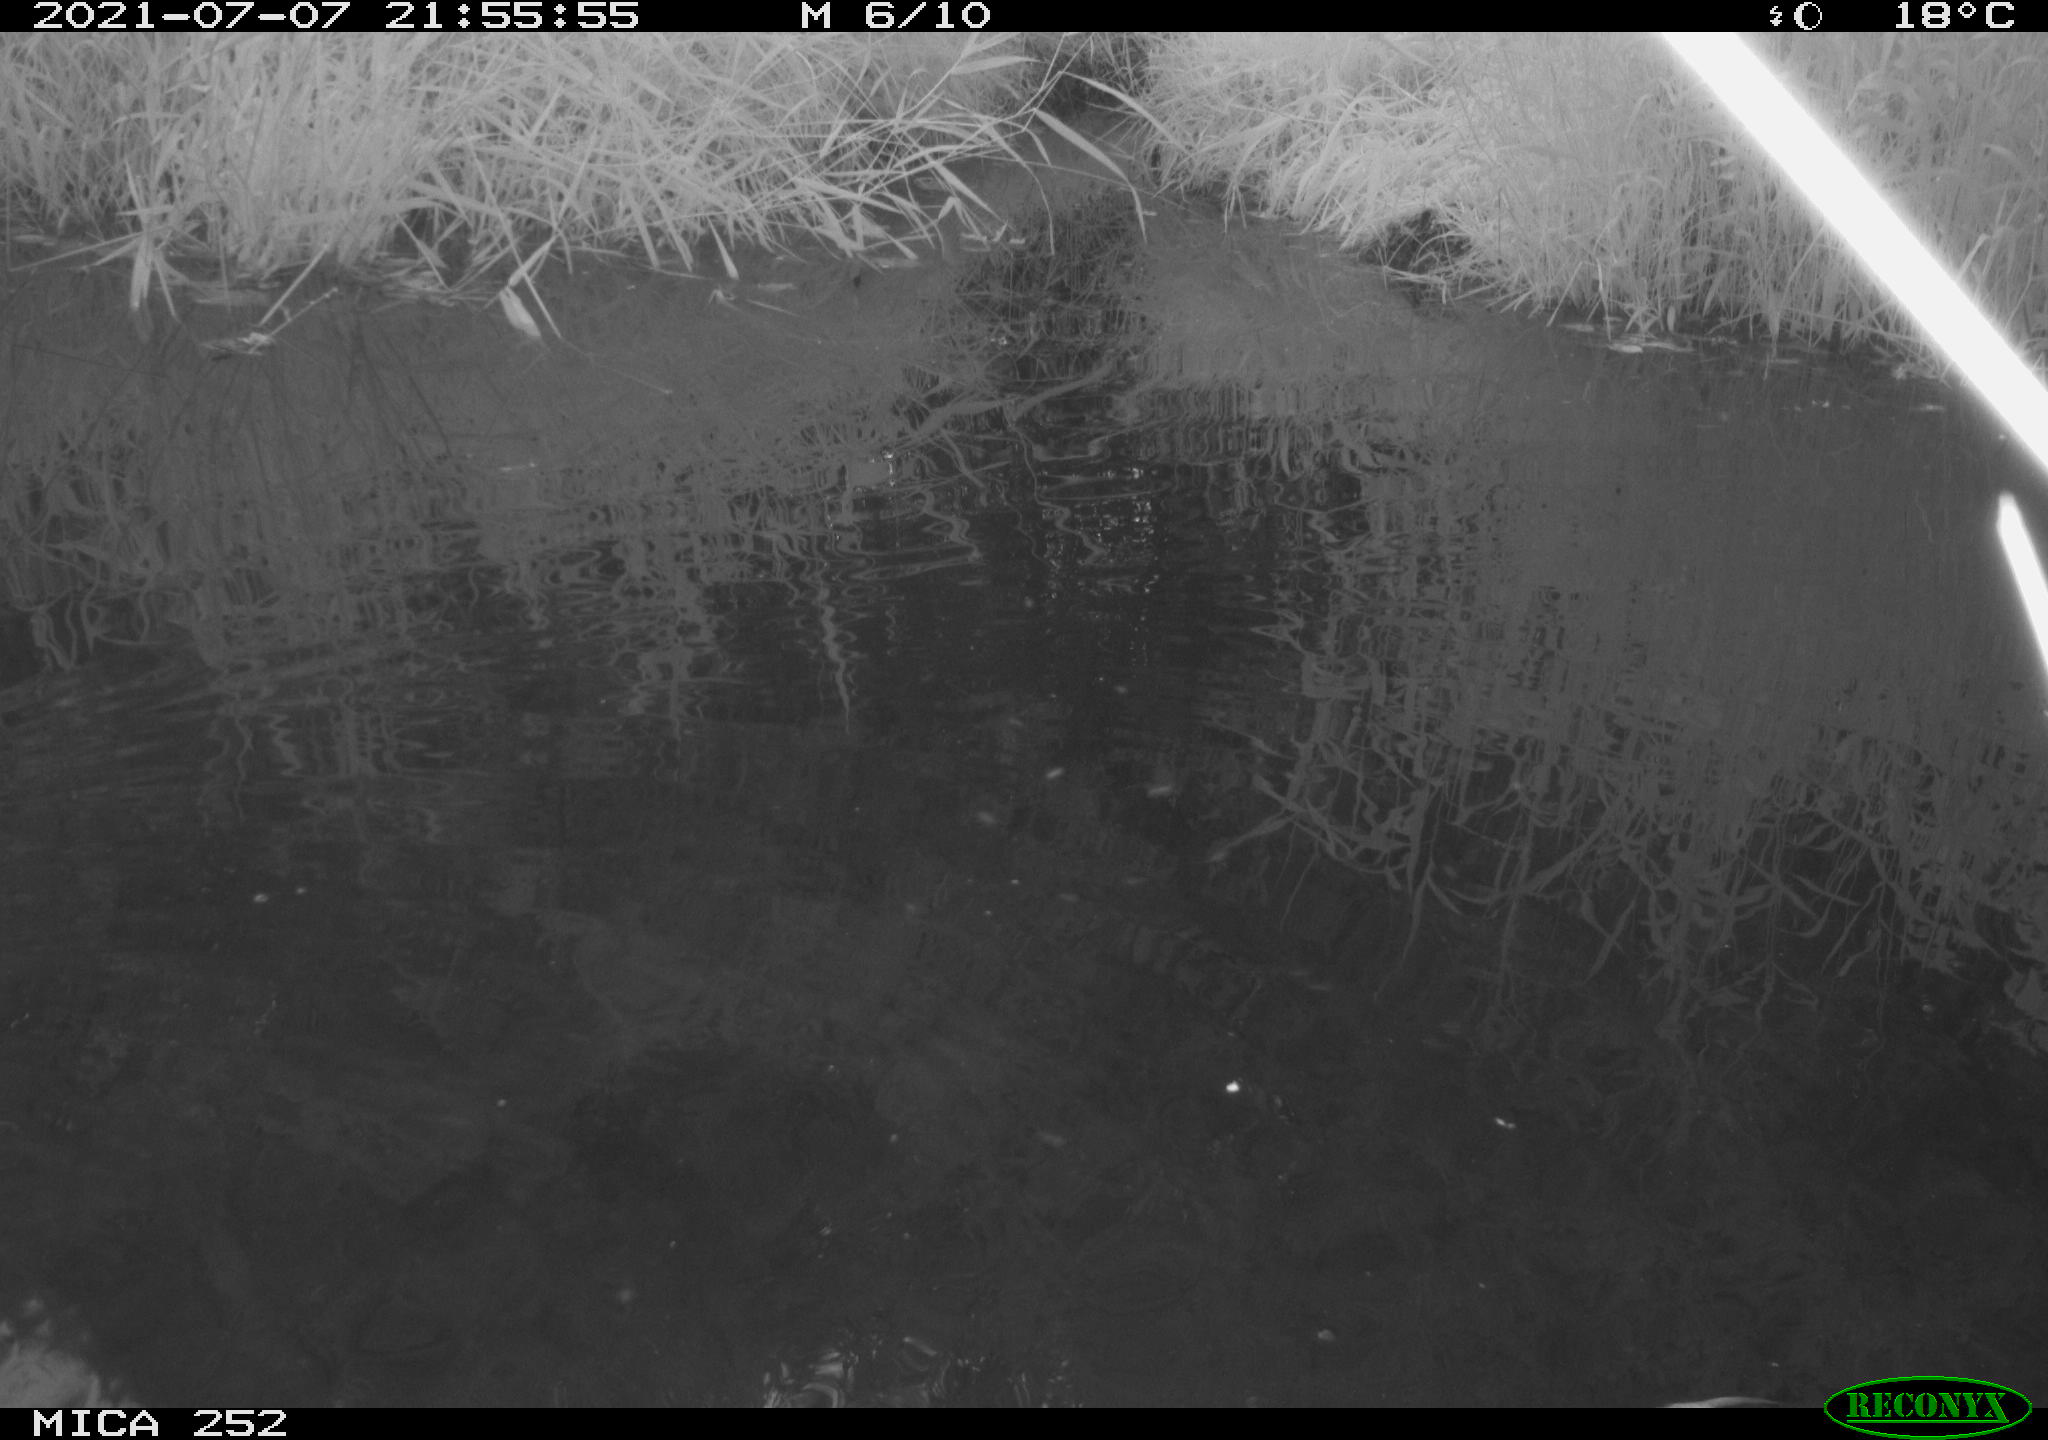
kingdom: Animalia
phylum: Chordata
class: Aves
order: Anseriformes
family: Anatidae
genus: Anas
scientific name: Anas platyrhynchos
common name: Mallard
